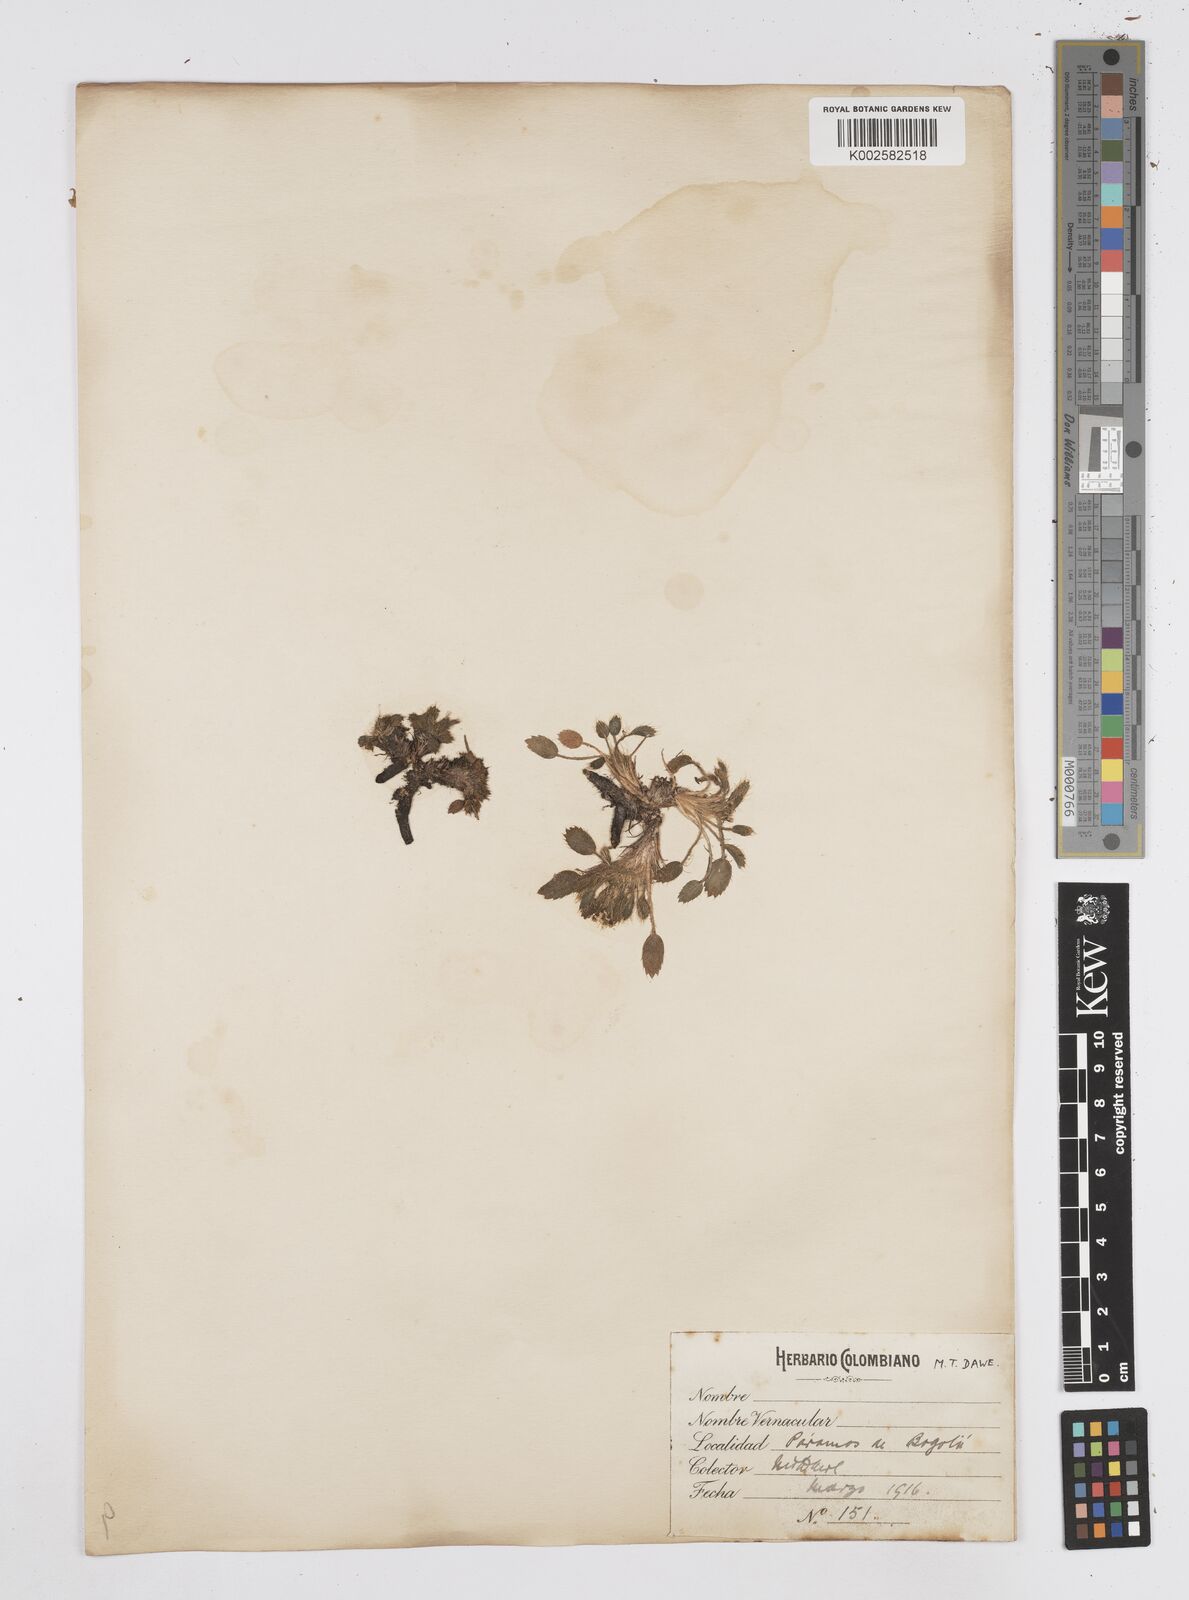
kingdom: Plantae
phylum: Tracheophyta
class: Magnoliopsida
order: Apiales
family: Apiaceae
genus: Azorella
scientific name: Azorella crenata
